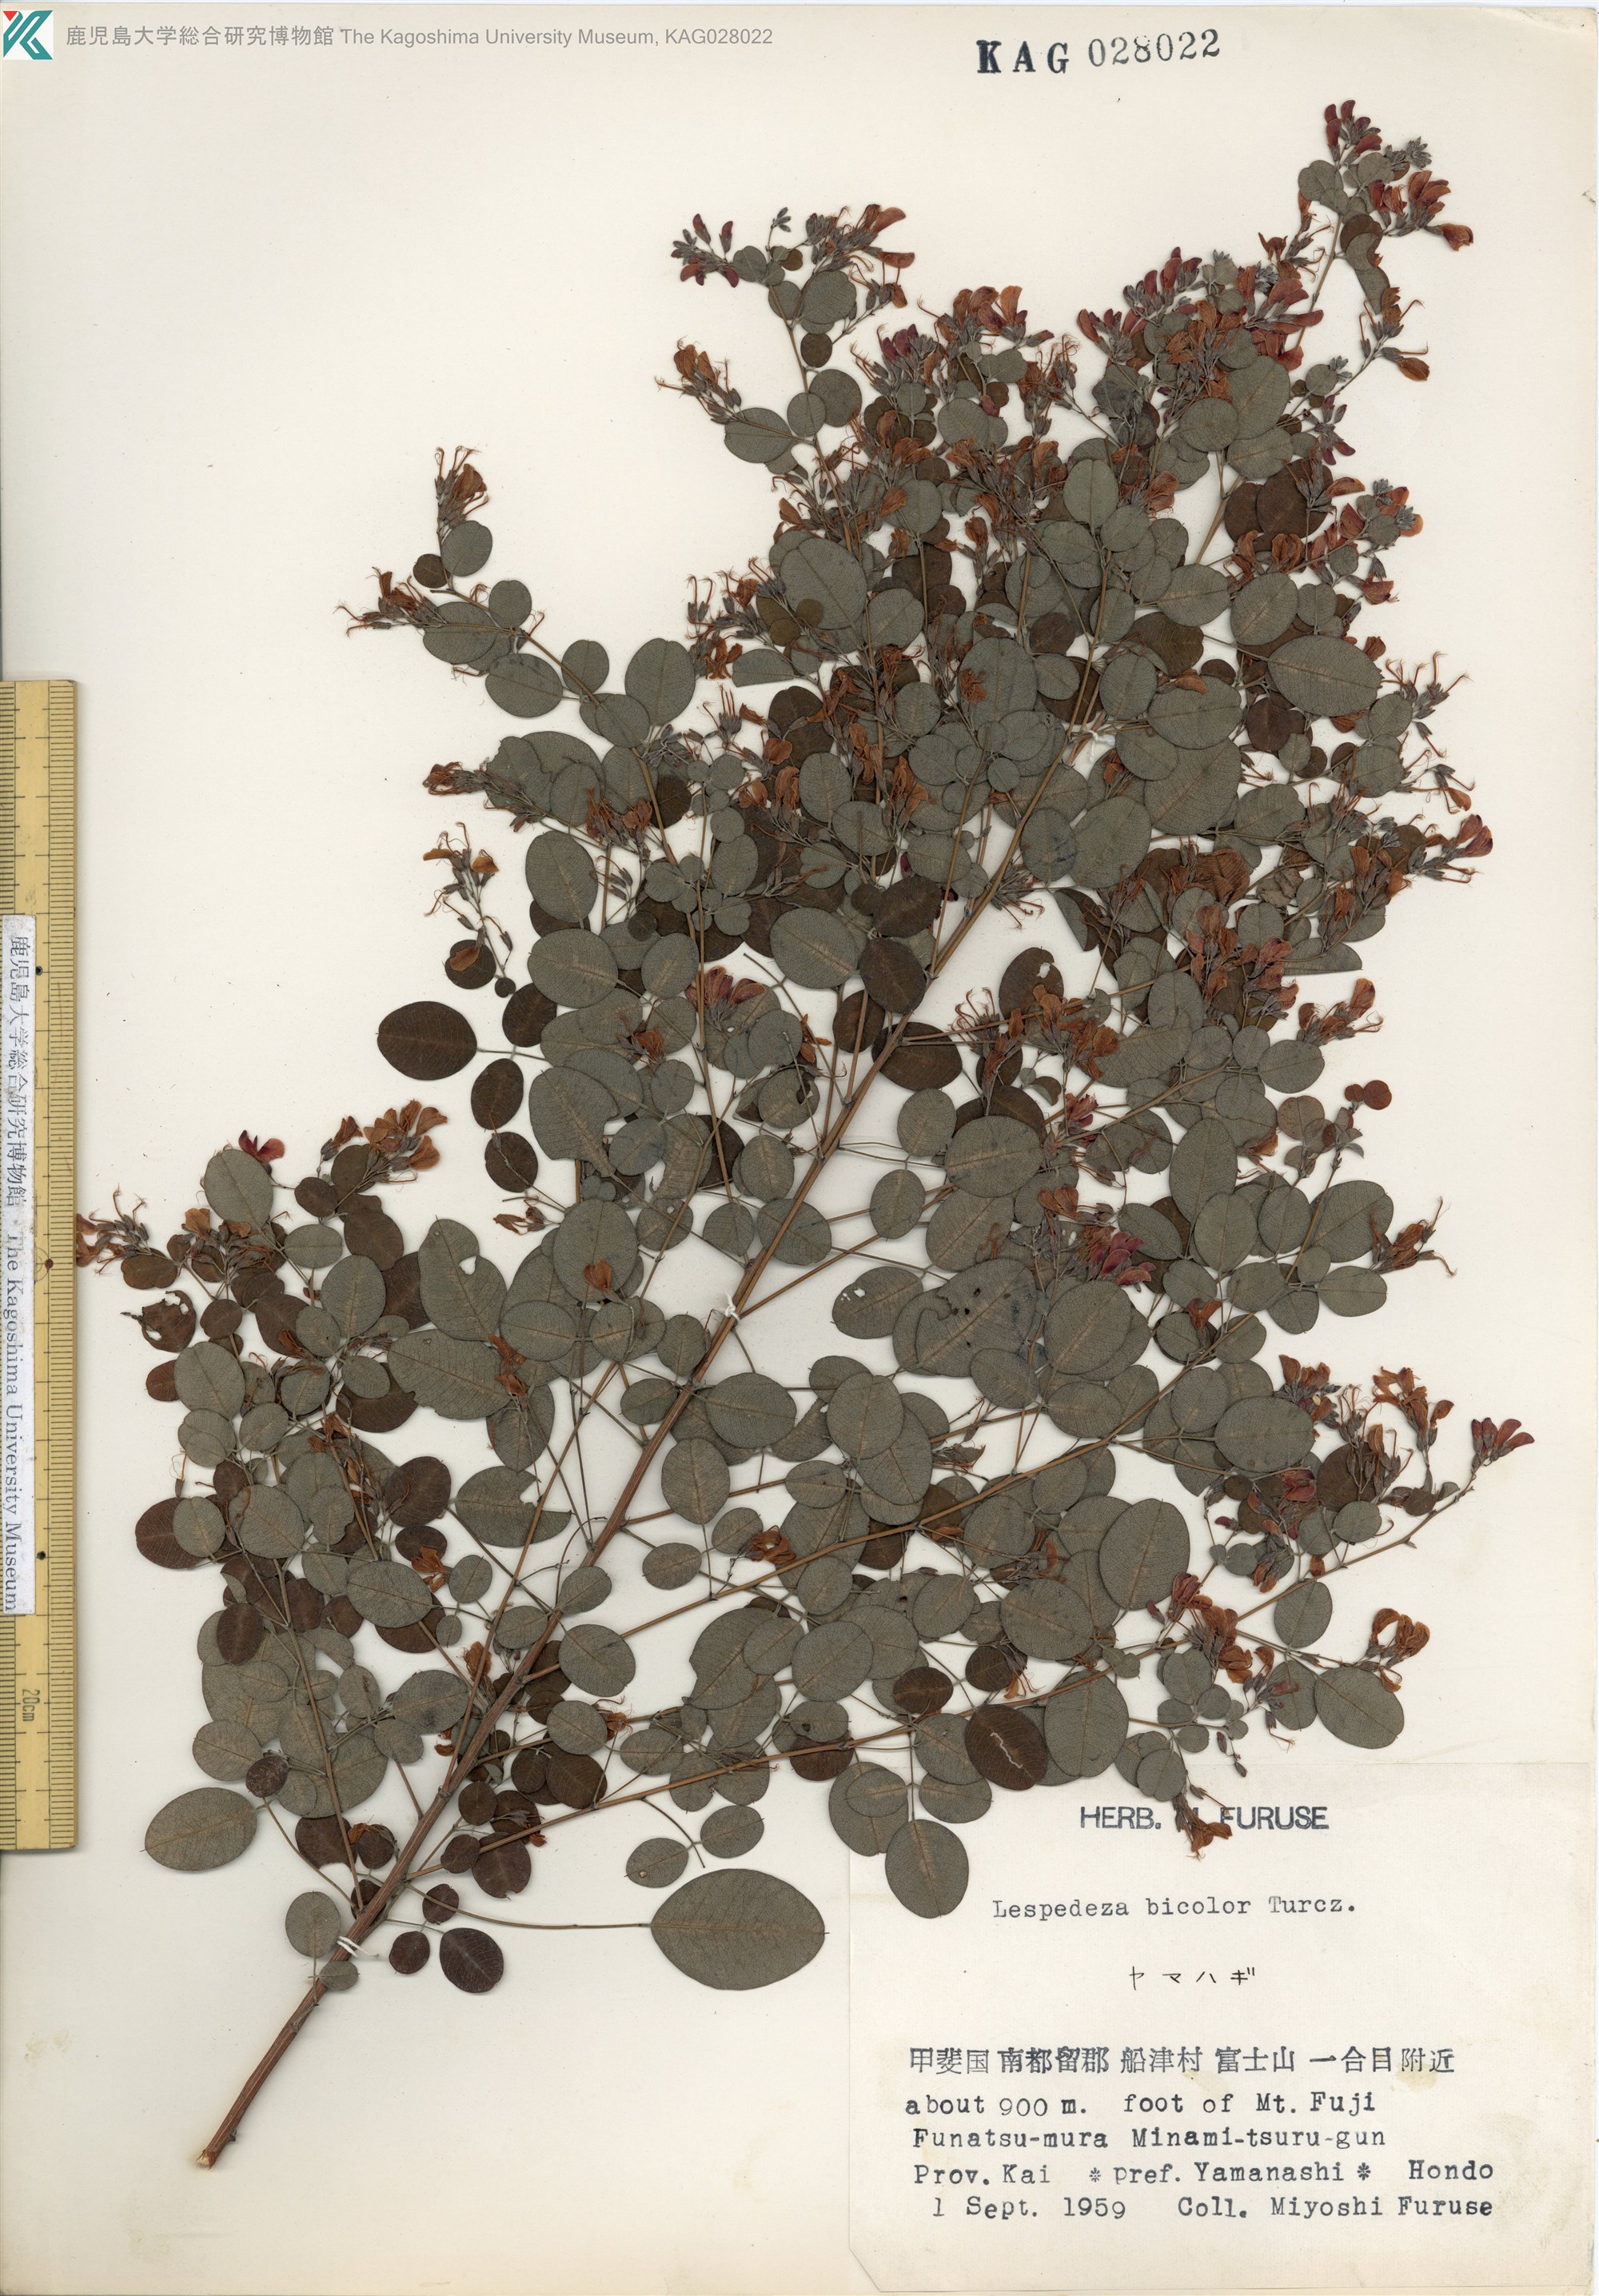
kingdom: Plantae
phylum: Tracheophyta
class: Magnoliopsida
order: Fabales
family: Fabaceae
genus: Lespedeza
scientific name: Lespedeza bicolor
